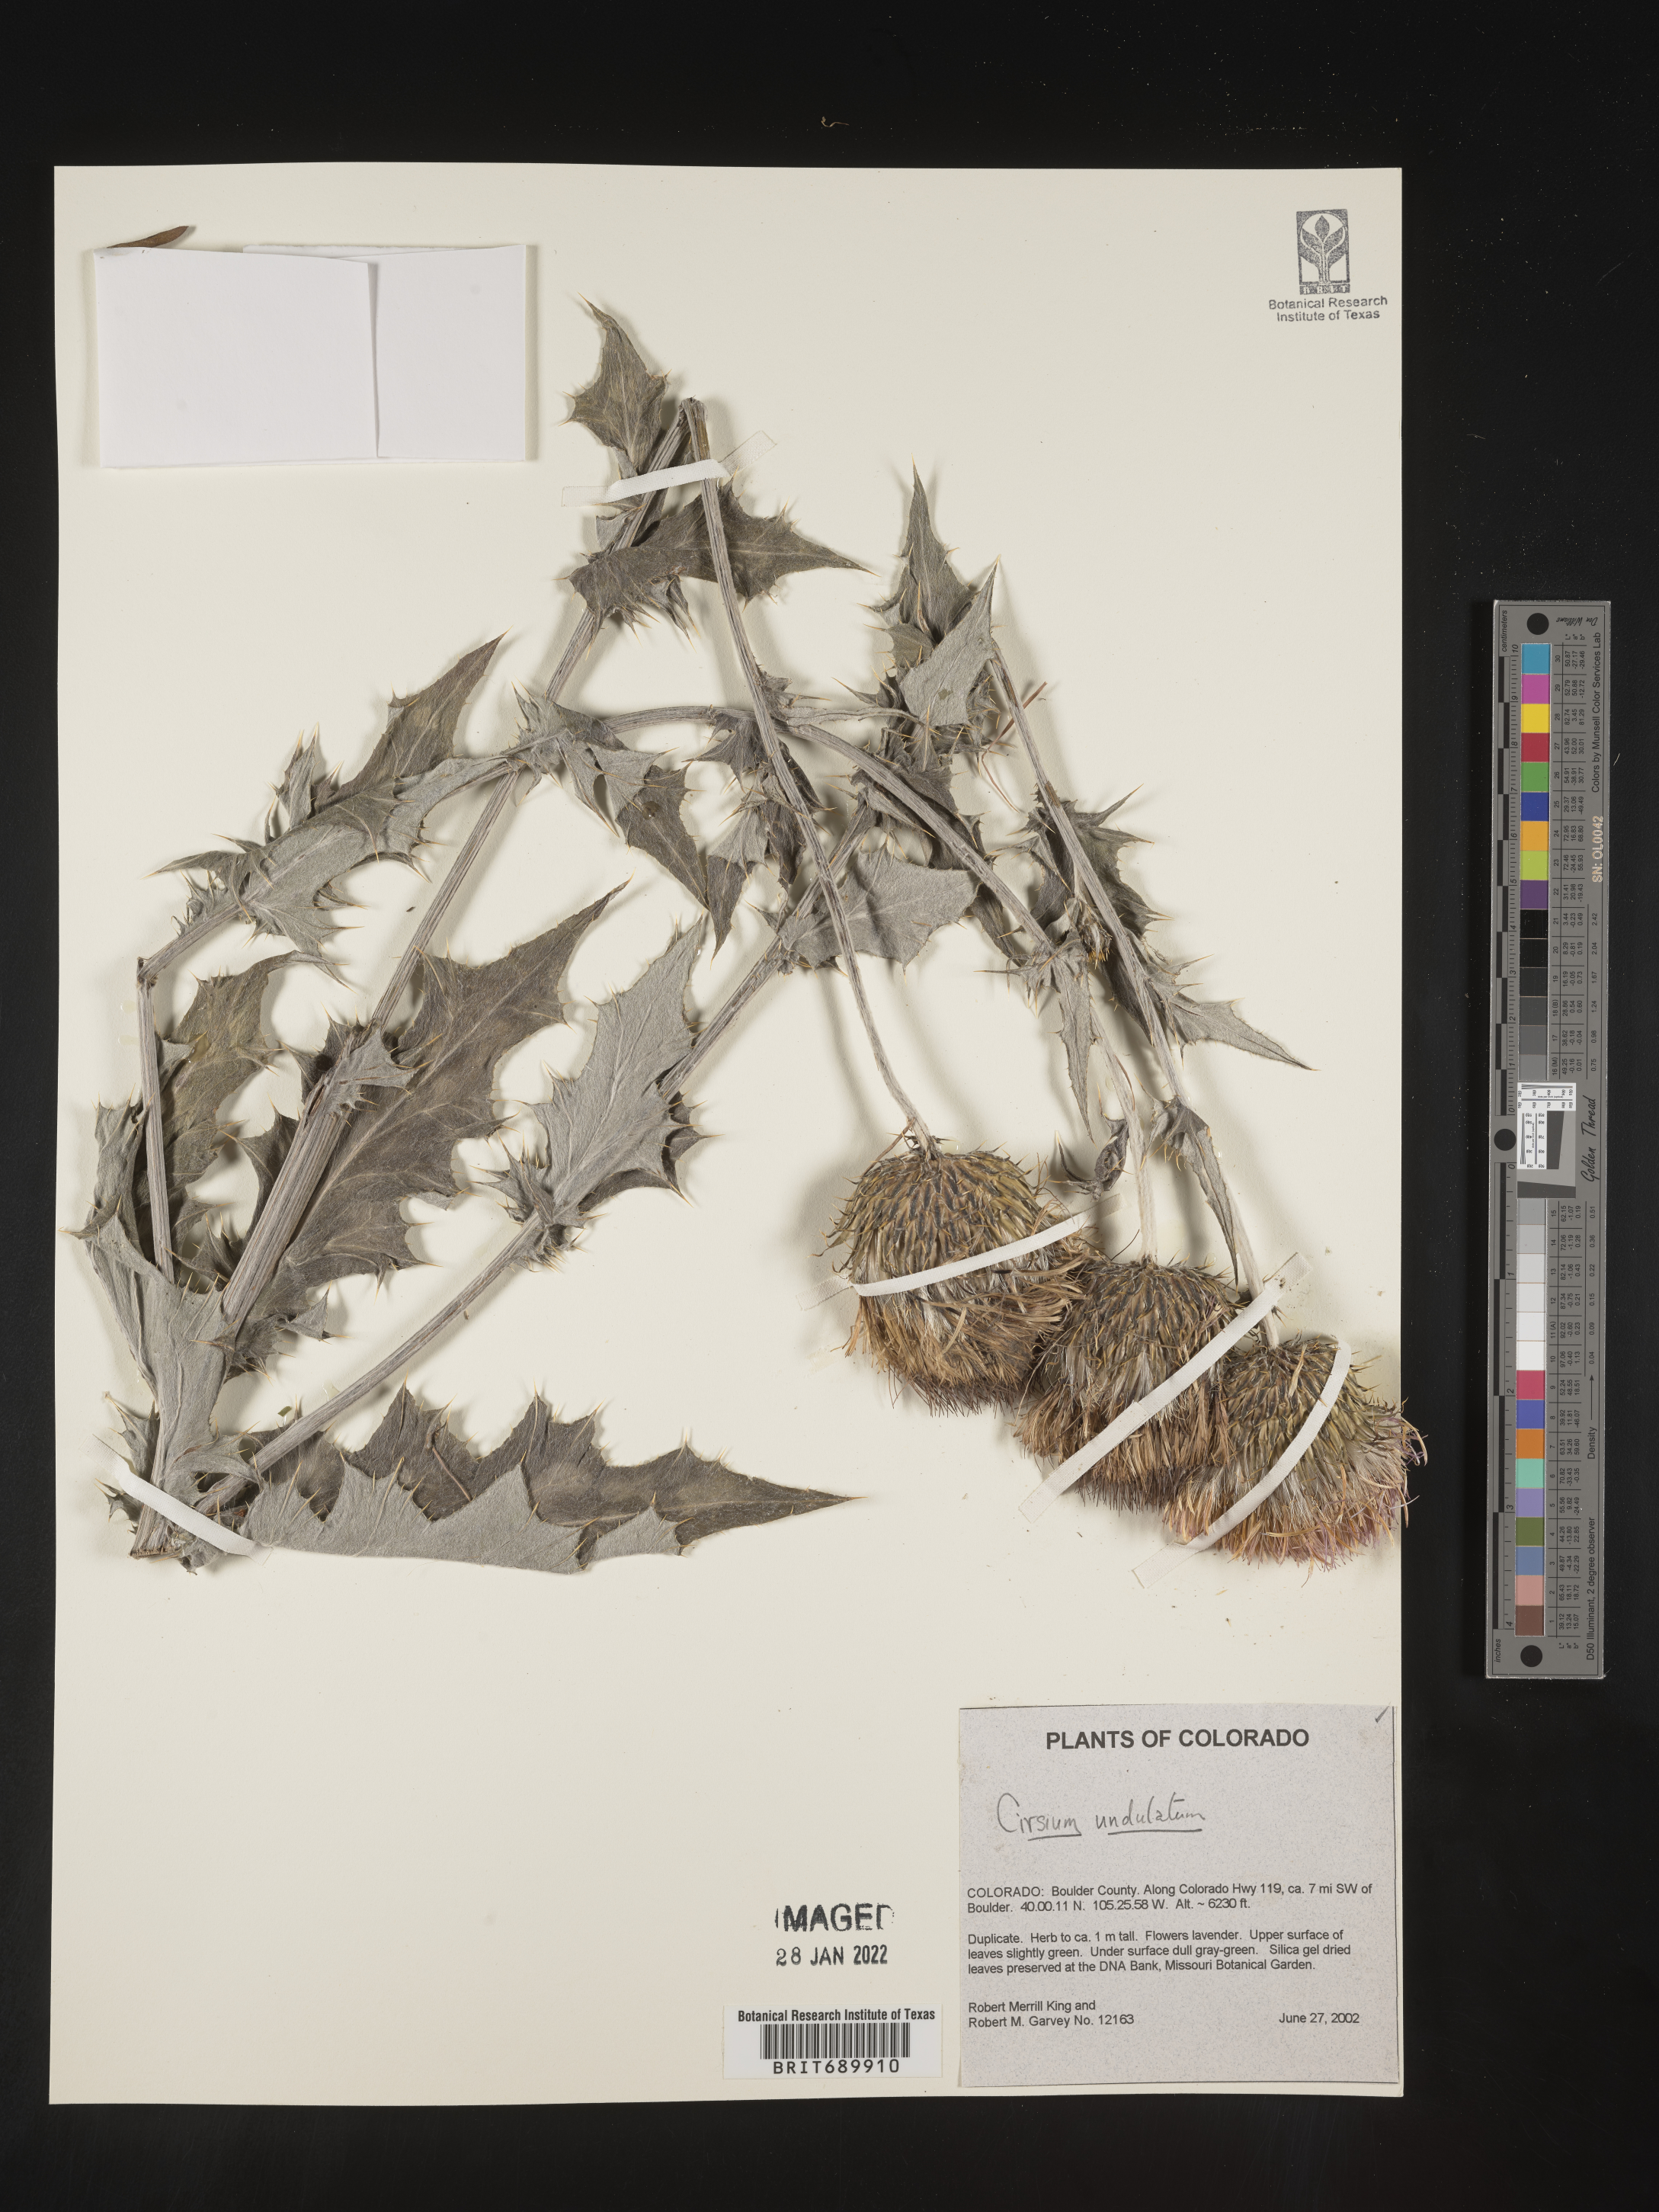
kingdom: Plantae
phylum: Tracheophyta
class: Magnoliopsida
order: Asterales
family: Asteraceae
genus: Cirsium
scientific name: Cirsium undulatum
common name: Pasture thistle
